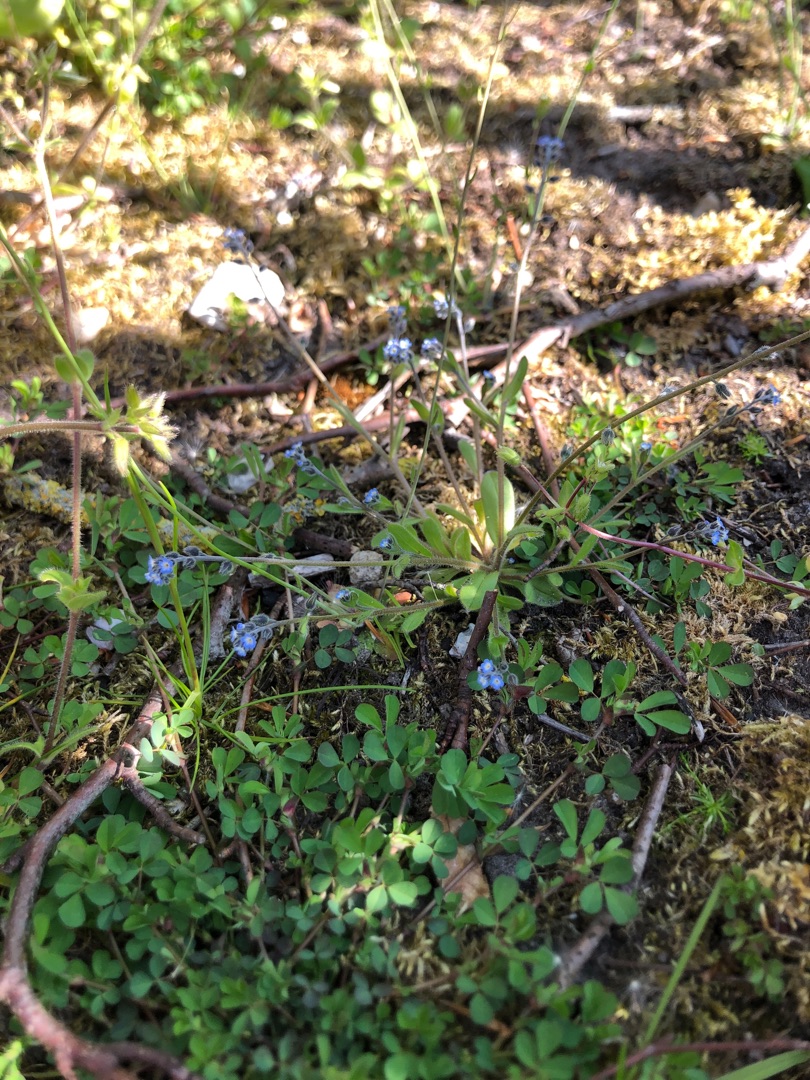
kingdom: Plantae
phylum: Tracheophyta
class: Magnoliopsida
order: Boraginales
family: Boraginaceae
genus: Myosotis
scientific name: Myosotis ramosissima
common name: Bakke-forglemmigej
